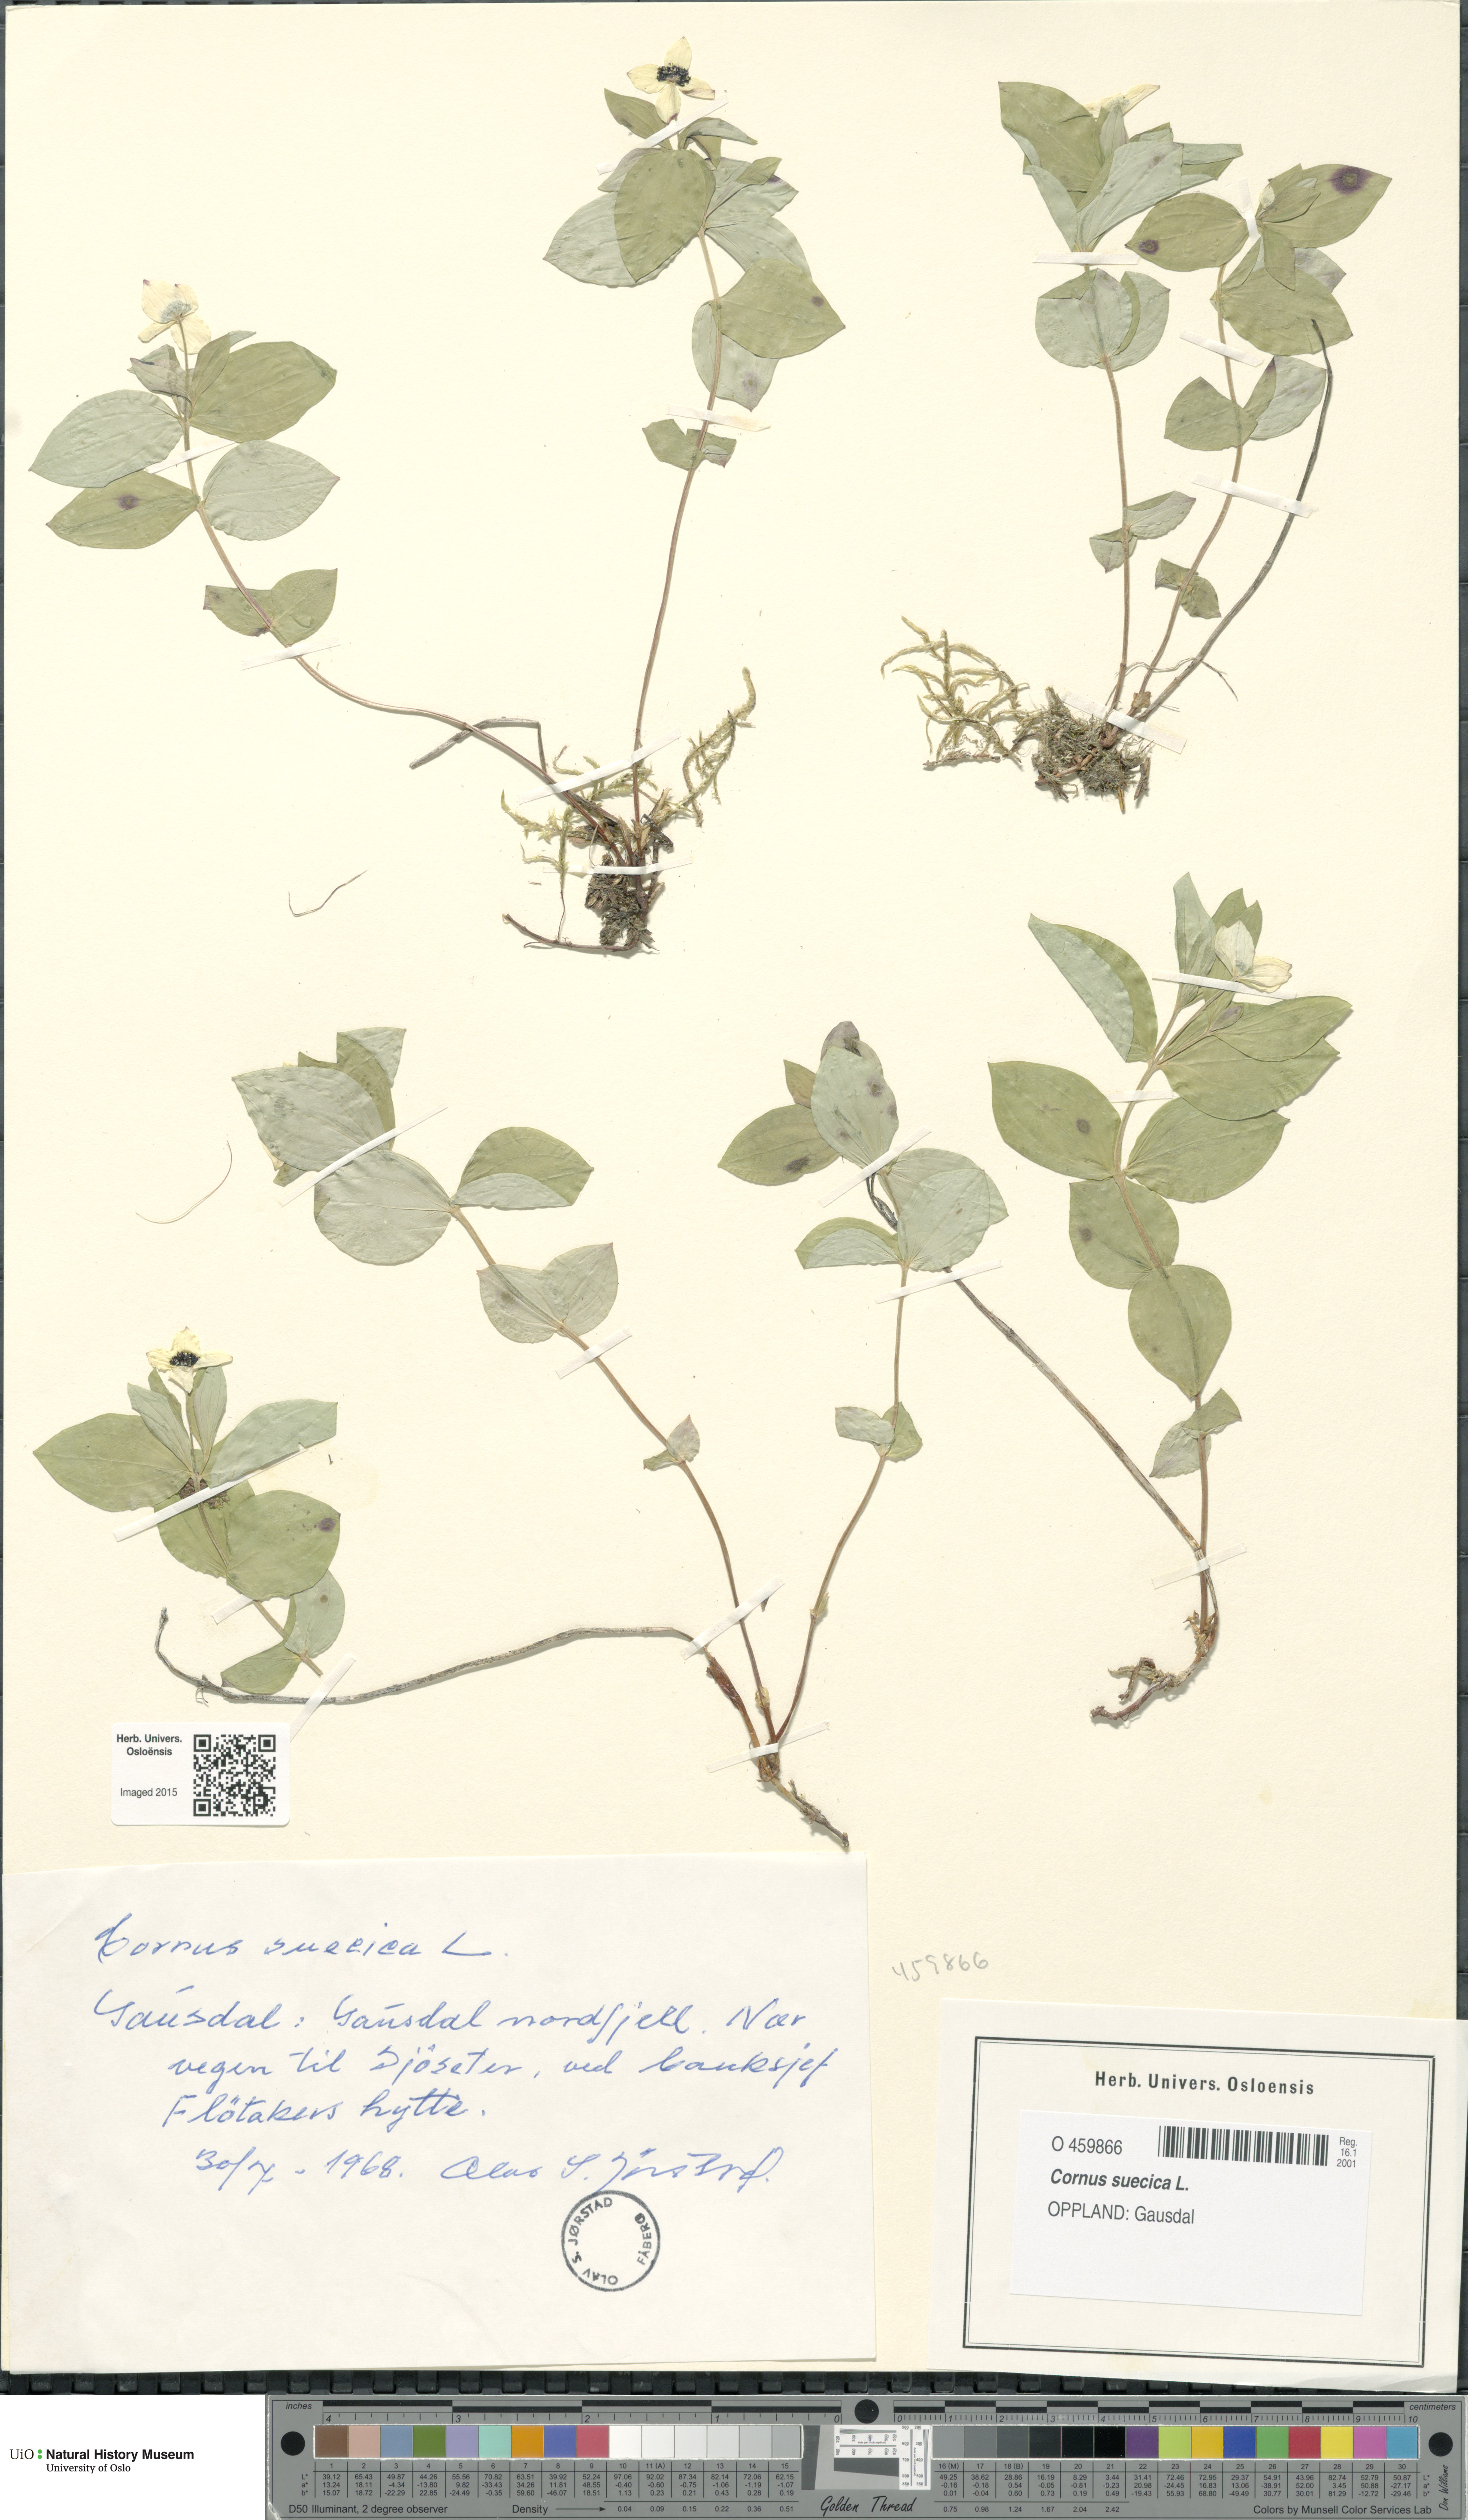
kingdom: Plantae
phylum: Tracheophyta
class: Magnoliopsida
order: Cornales
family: Cornaceae
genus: Cornus
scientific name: Cornus suecica
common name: Dwarf cornel
